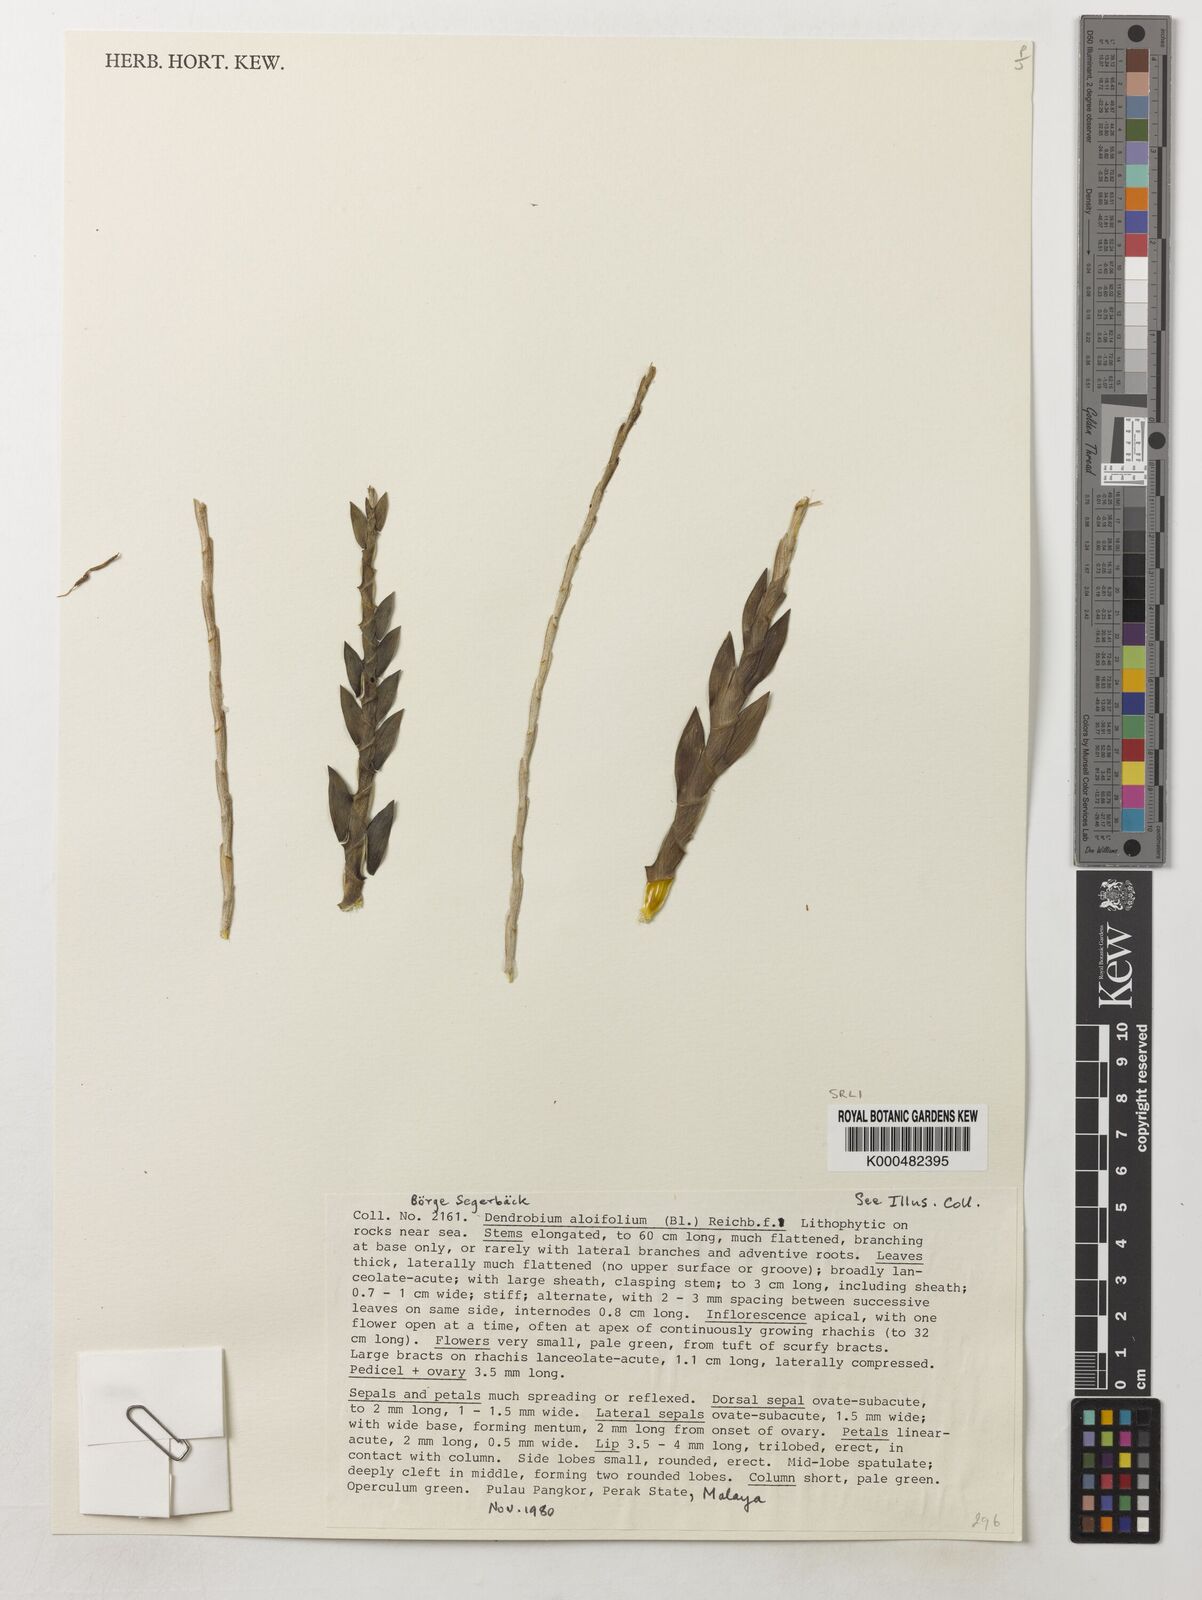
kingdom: Plantae
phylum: Tracheophyta
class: Liliopsida
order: Asparagales
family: Orchidaceae
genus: Dendrobium
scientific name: Dendrobium aloifolium
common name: Aloe-like dendrobium
